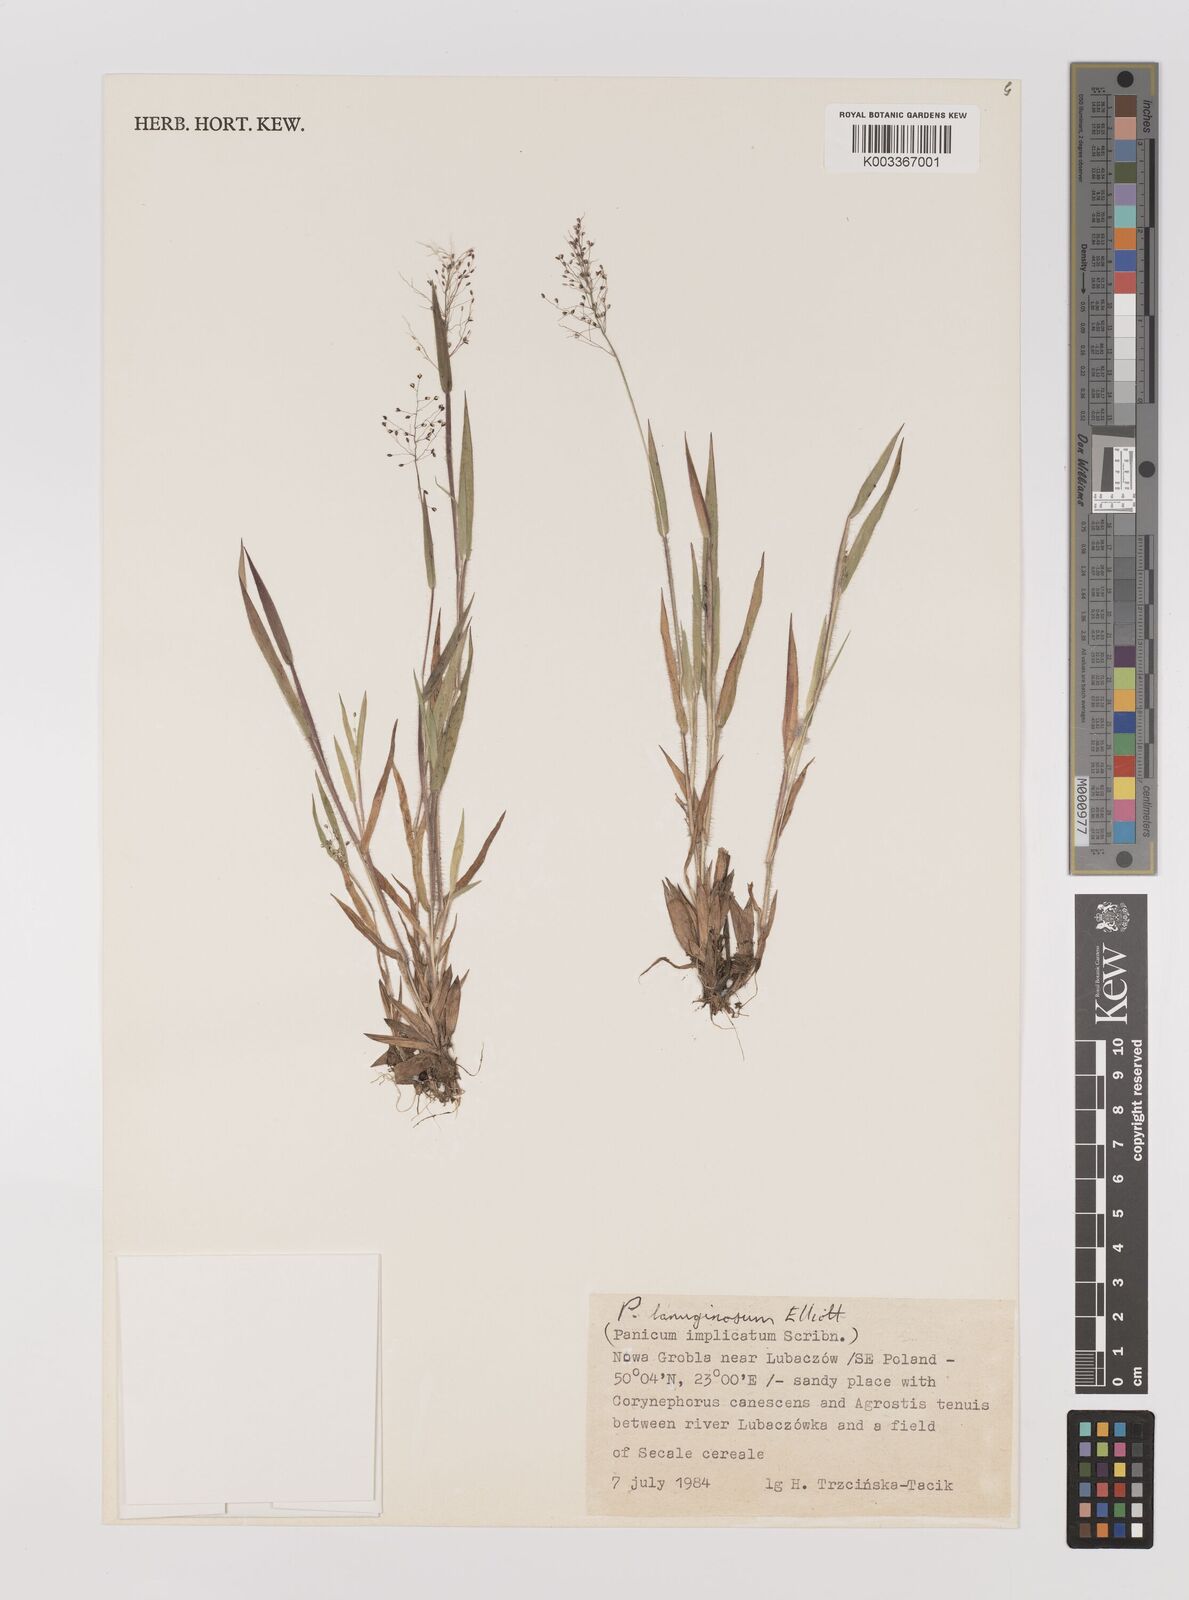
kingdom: Plantae
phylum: Tracheophyta
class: Liliopsida
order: Poales
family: Poaceae
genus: Dichanthelium
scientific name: Dichanthelium lanuginosum
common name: Woolly panicgrass
